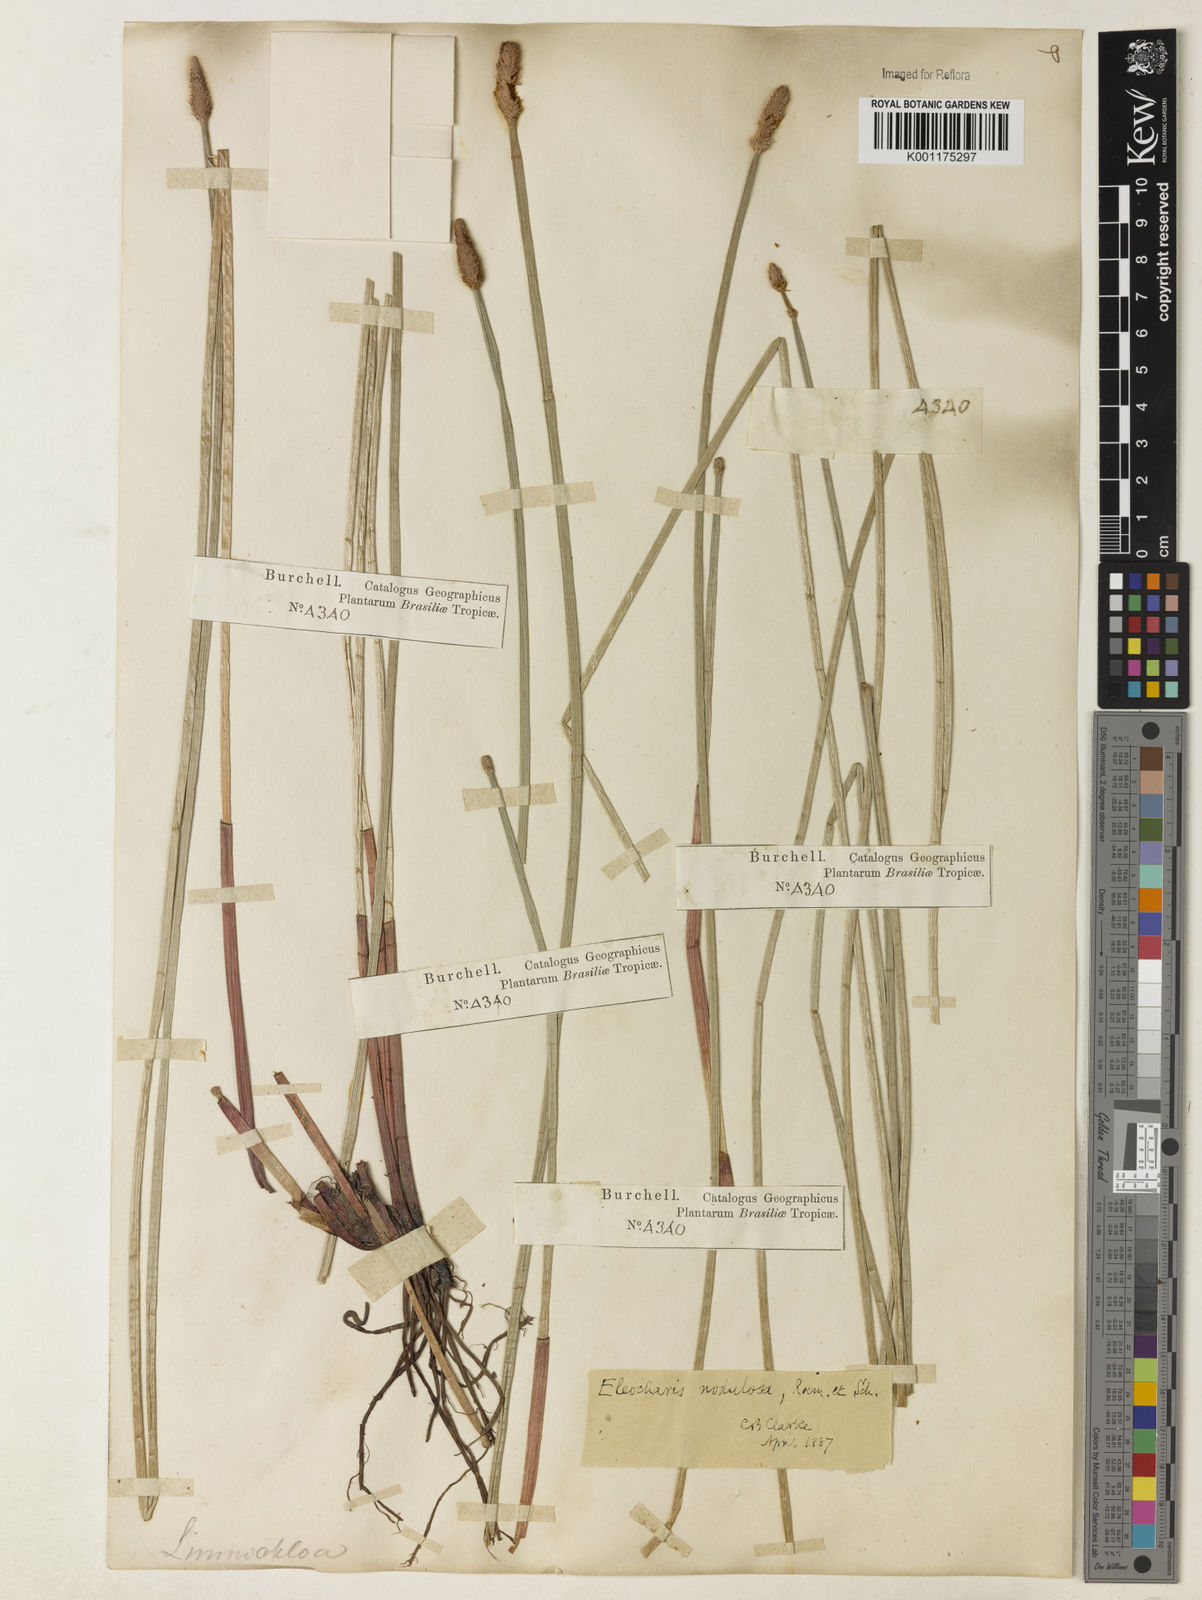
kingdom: Plantae
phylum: Tracheophyta
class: Liliopsida
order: Poales
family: Cyperaceae
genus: Eleocharis
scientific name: Eleocharis montana
